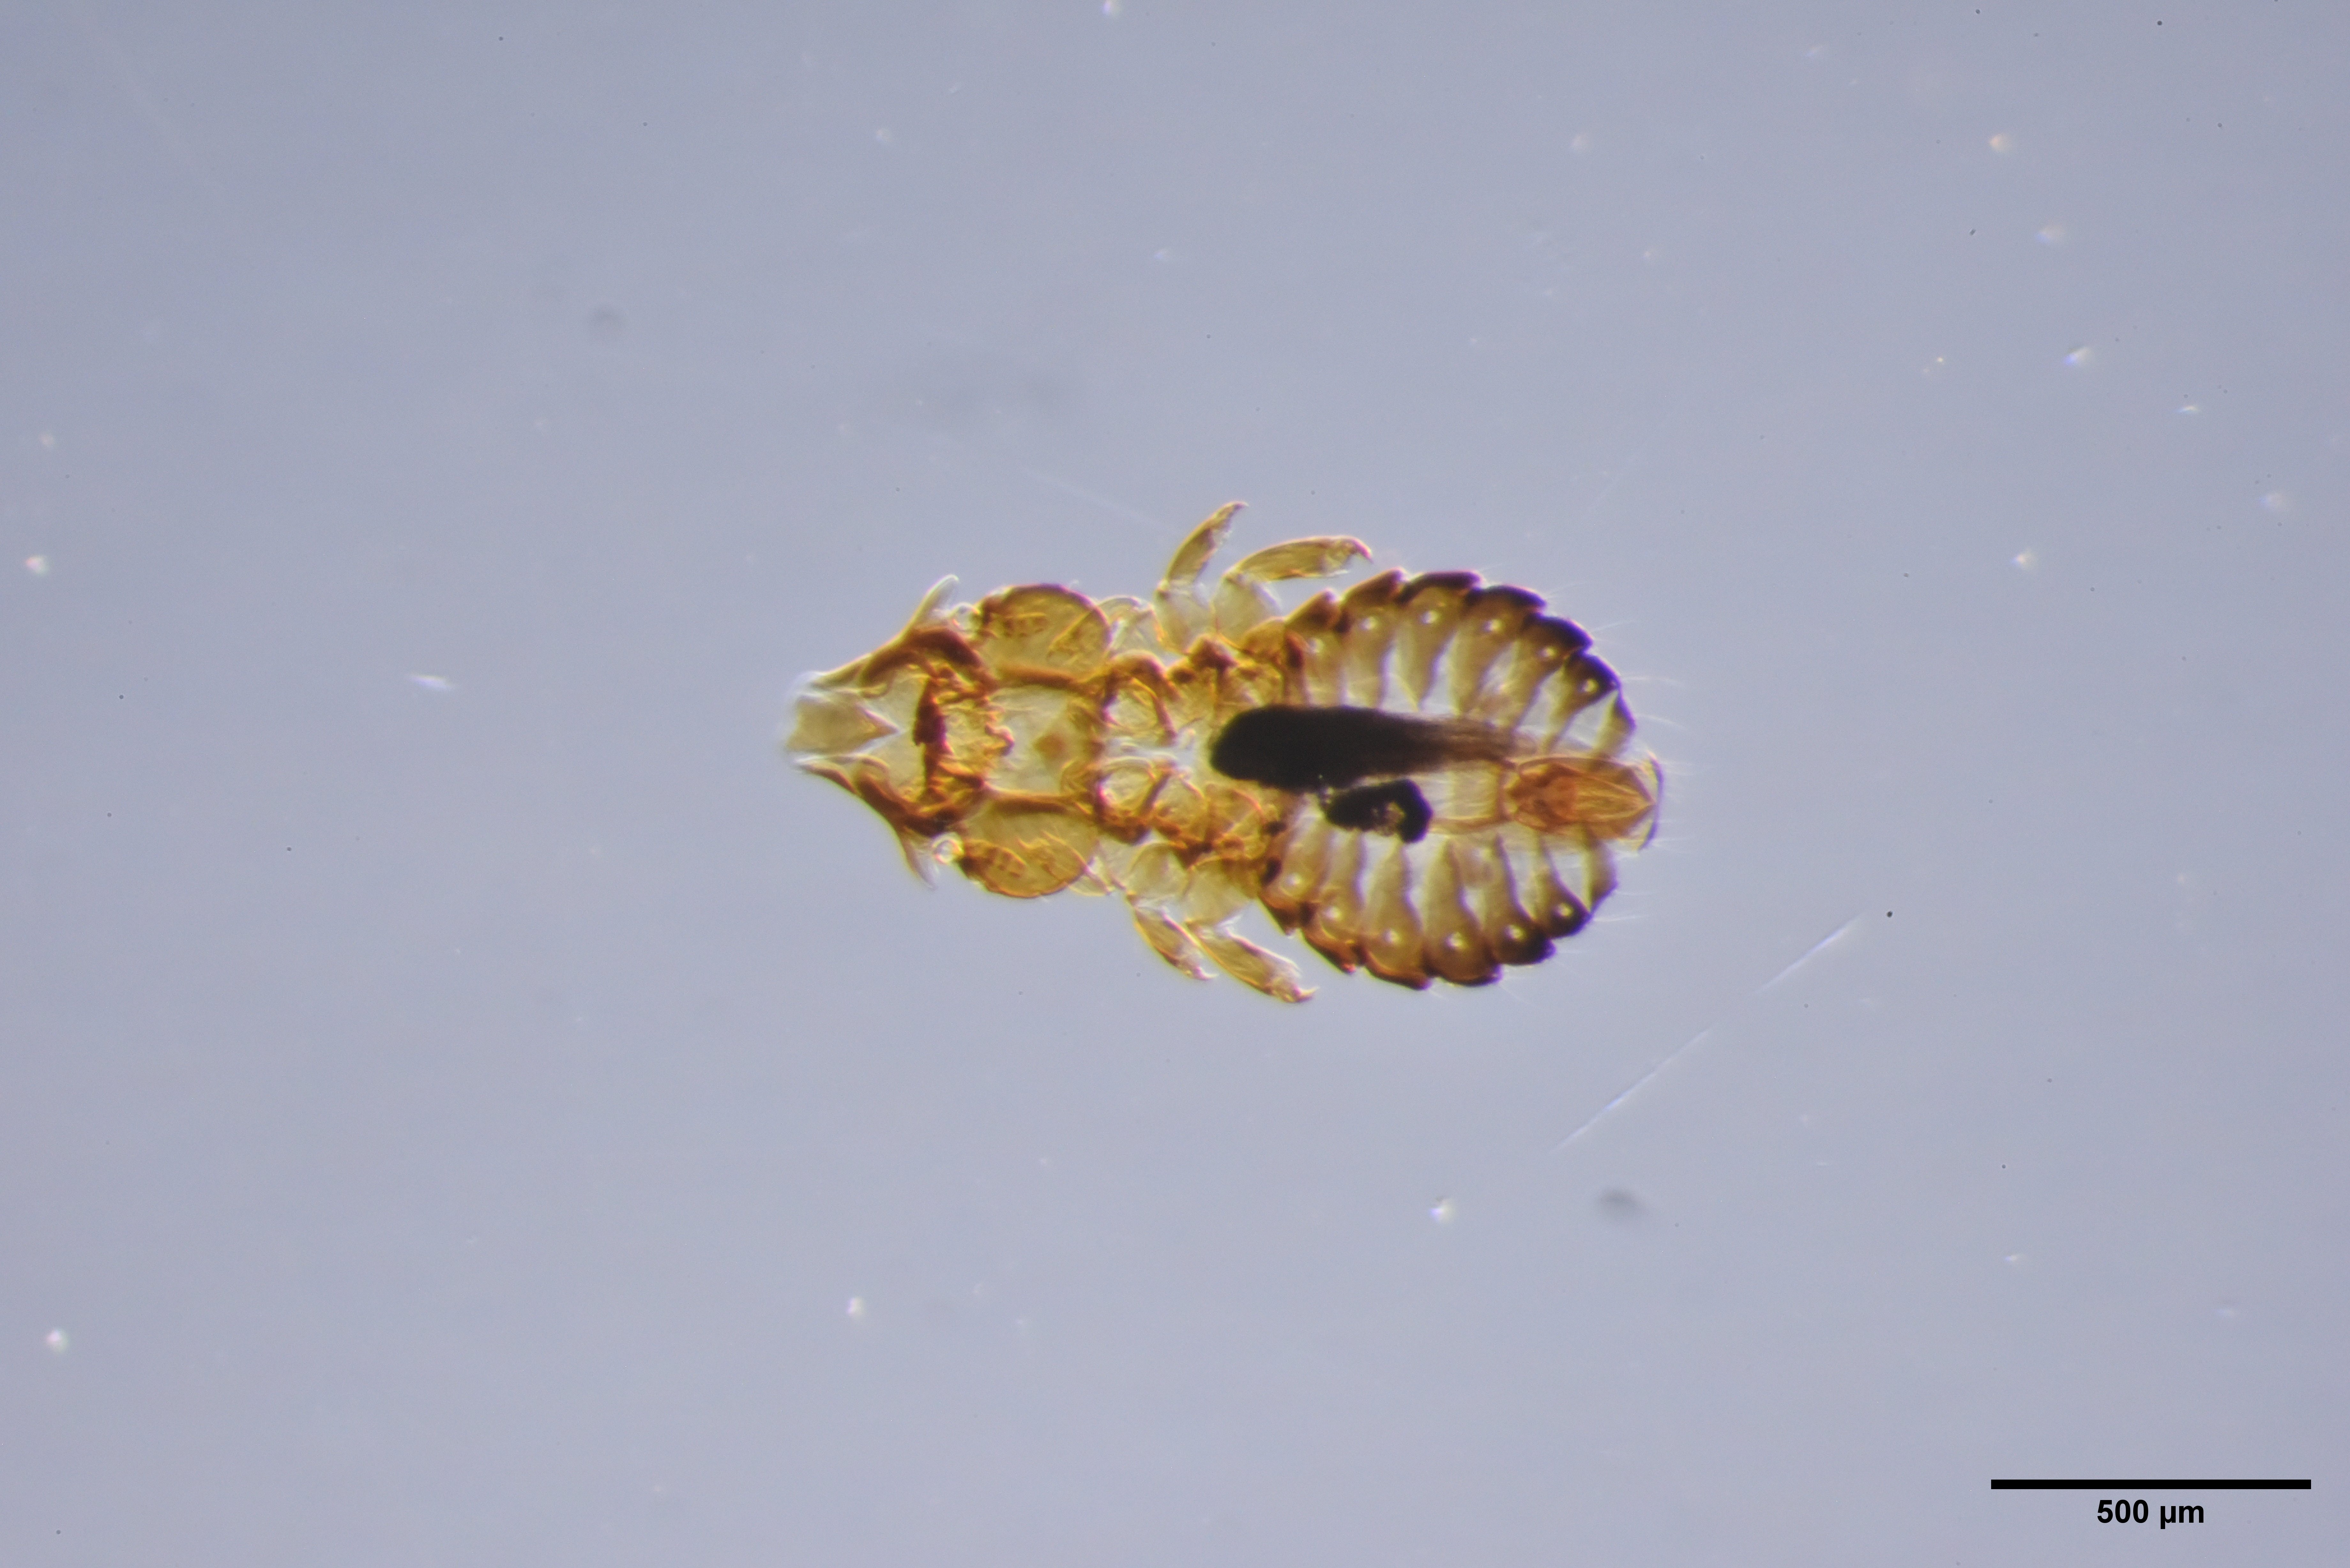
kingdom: Animalia
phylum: Arthropoda
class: Insecta
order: Psocodea
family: Philopteridae
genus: Saemundssonia
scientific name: Saemundssonia merguli
